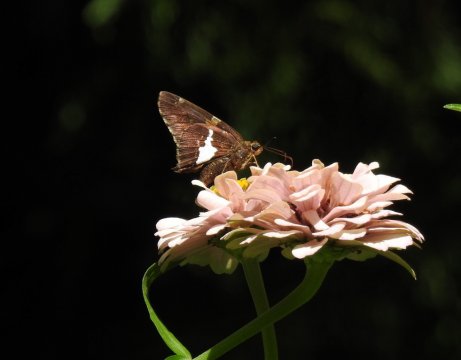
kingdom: Animalia
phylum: Arthropoda
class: Insecta
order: Lepidoptera
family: Hesperiidae
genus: Epargyreus
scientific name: Epargyreus clarus
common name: Silver-spotted Skipper
